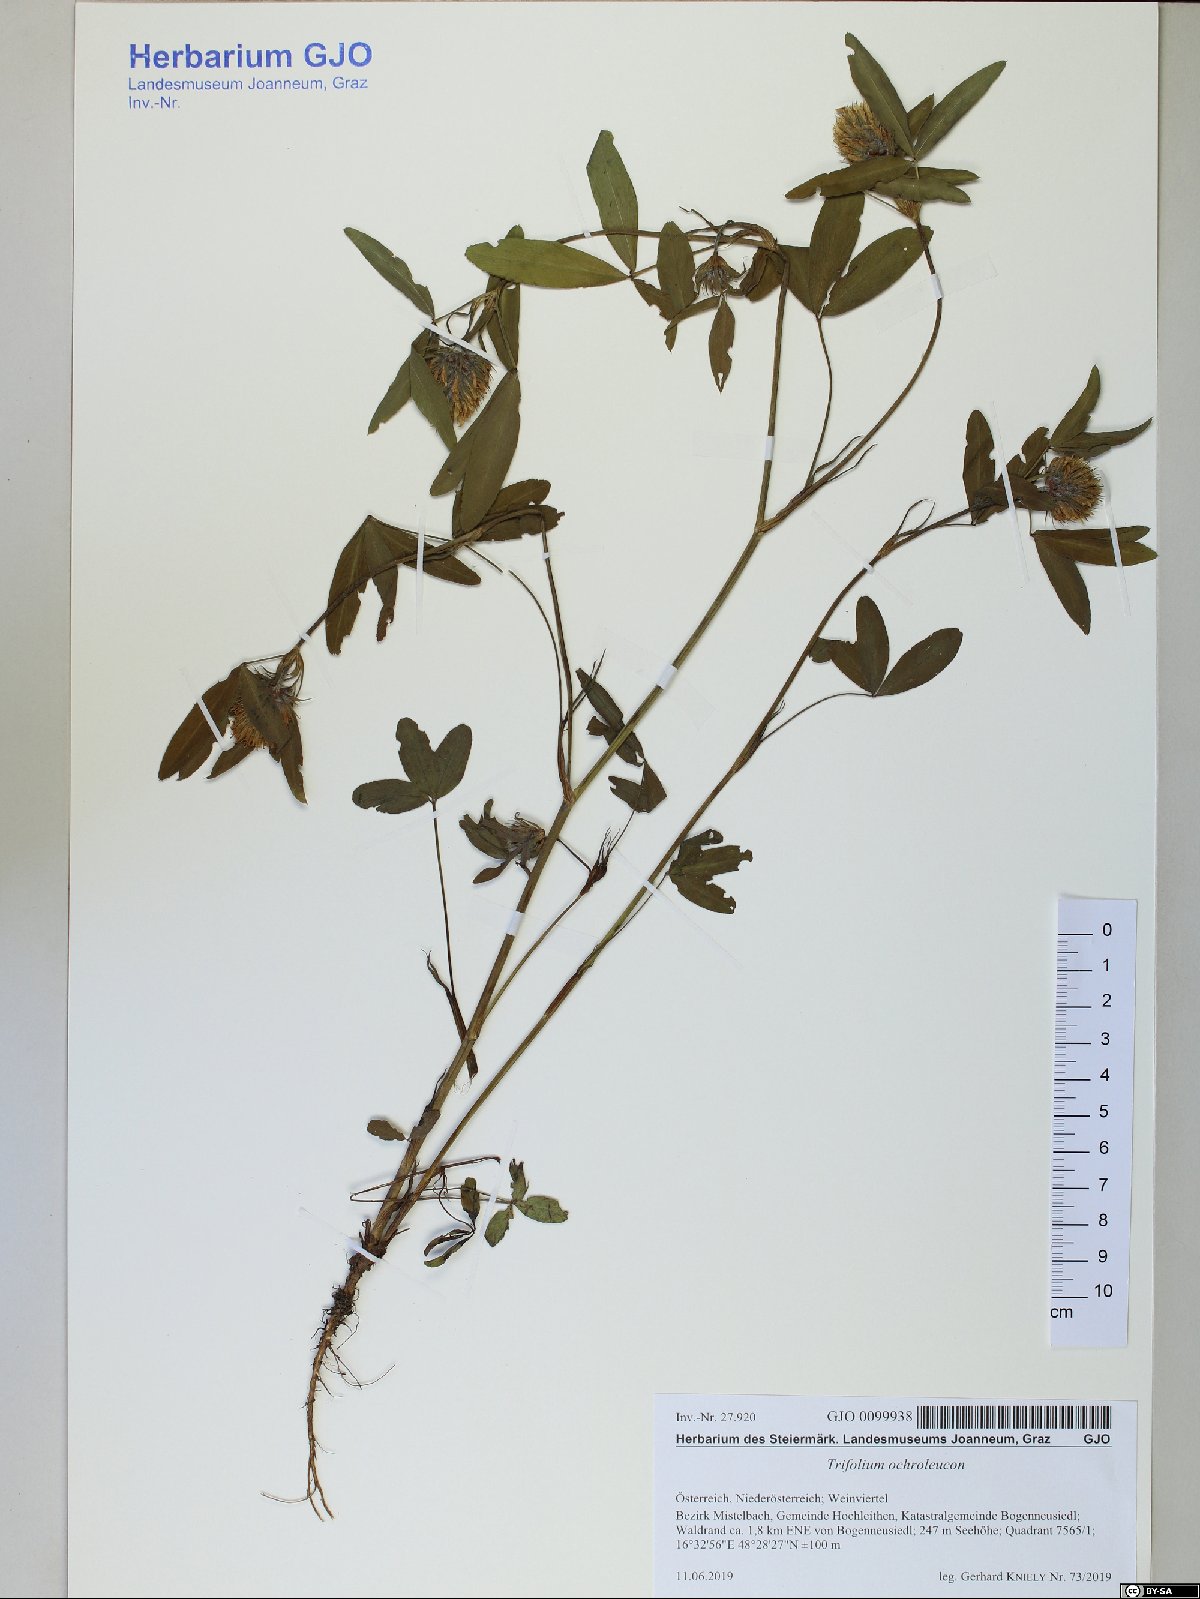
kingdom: Plantae
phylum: Tracheophyta
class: Magnoliopsida
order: Fabales
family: Fabaceae
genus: Trifolium
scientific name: Trifolium ochroleucon
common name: Sulphur clover
